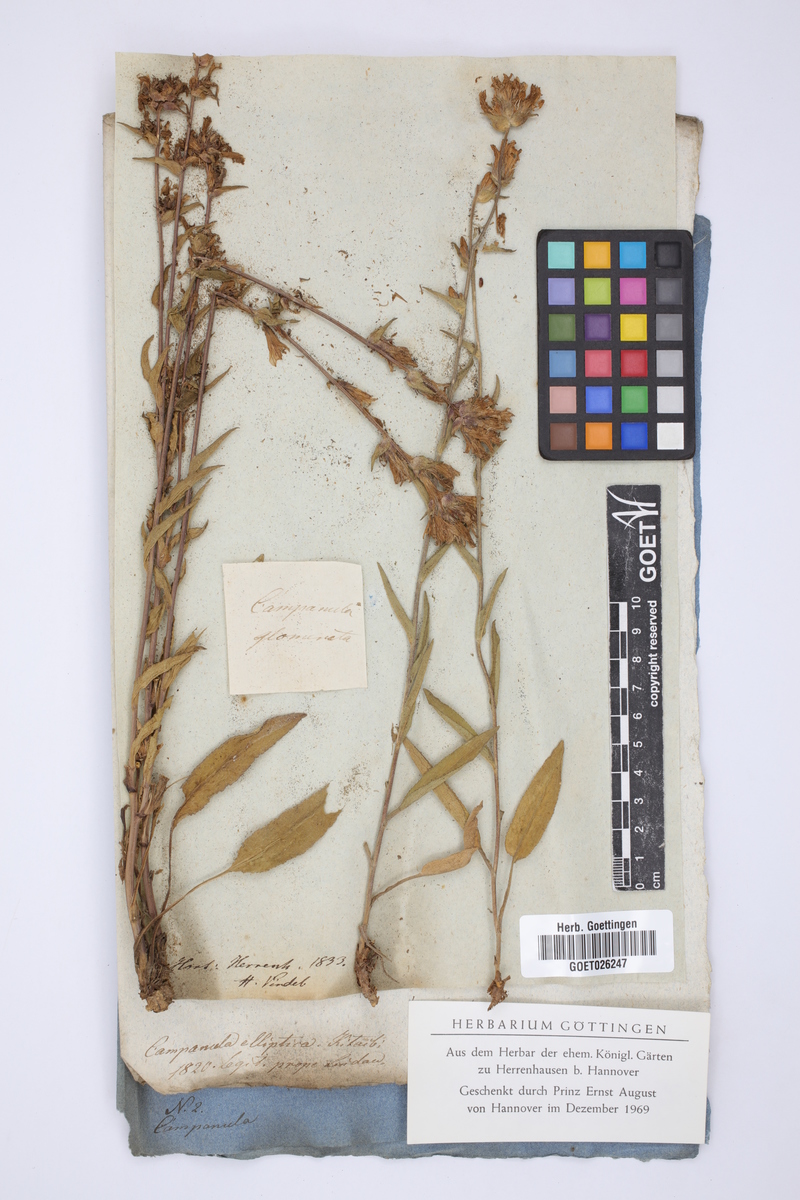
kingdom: Plantae
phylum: Tracheophyta
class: Magnoliopsida
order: Asterales
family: Campanulaceae
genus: Campanula
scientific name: Campanula glomerata
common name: Clustered bellflower
